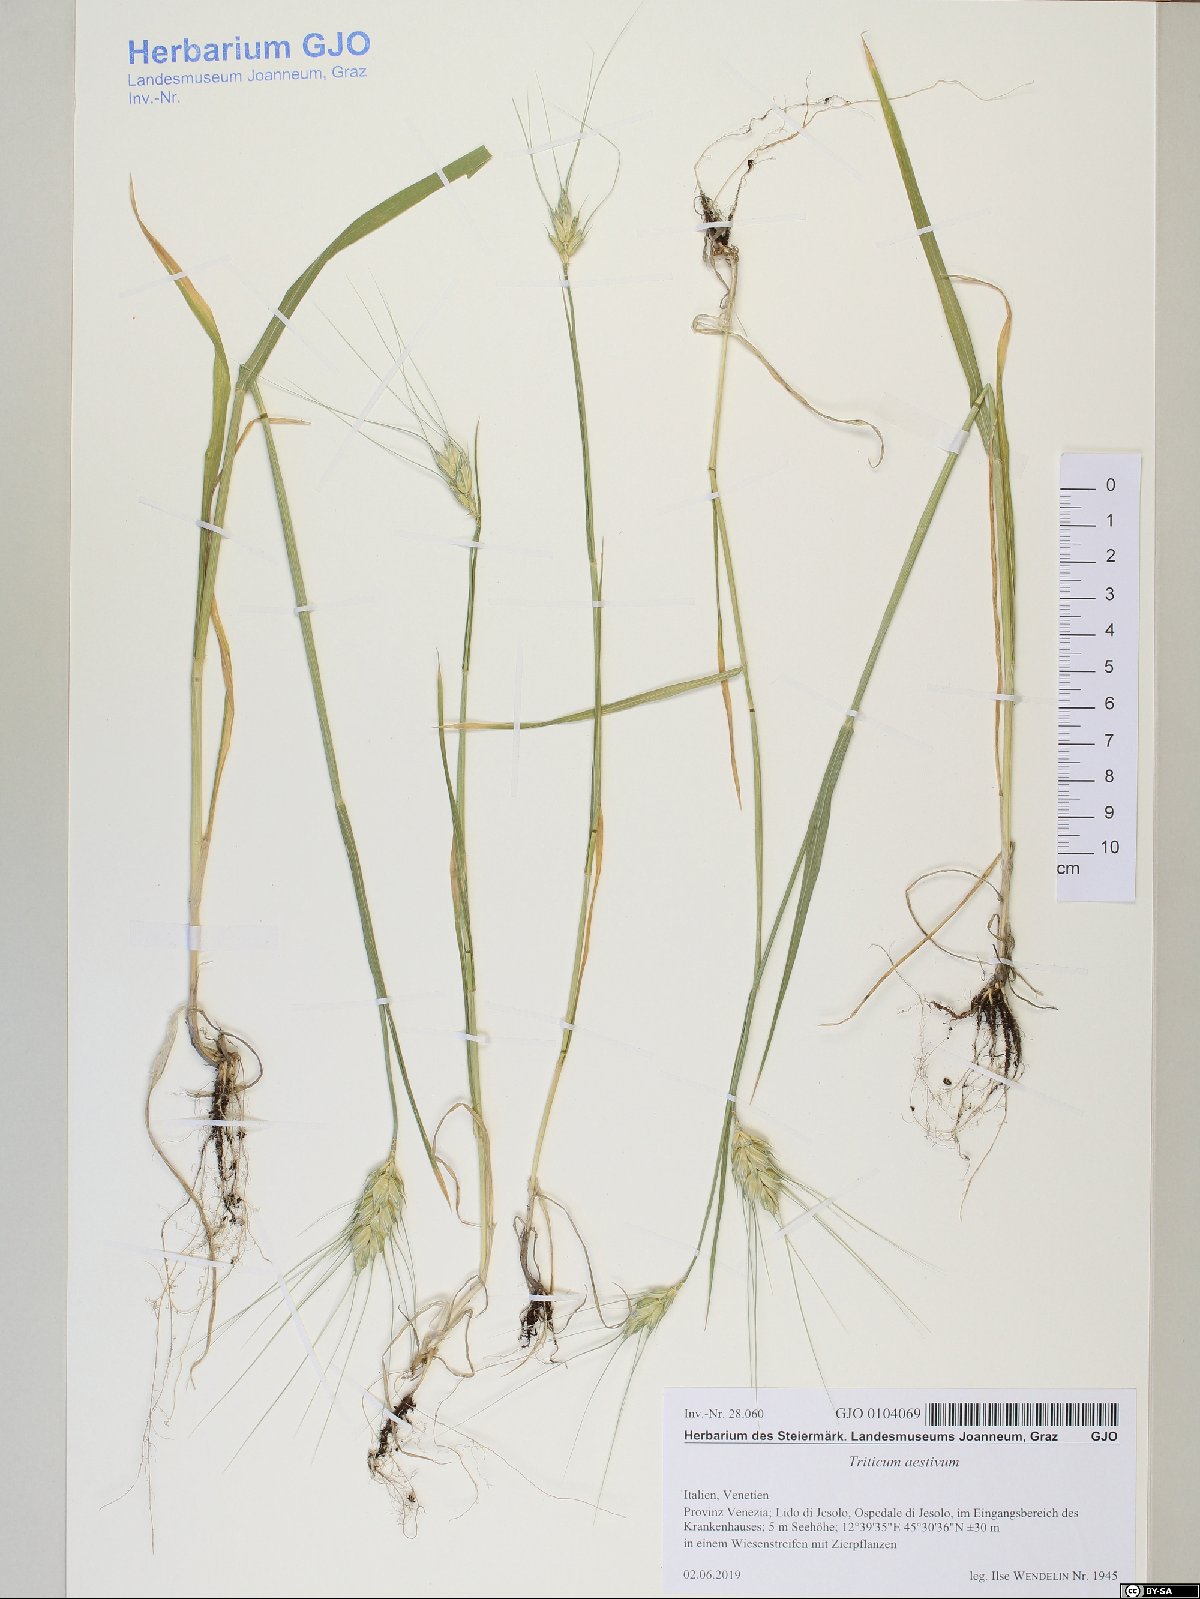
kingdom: Plantae
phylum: Tracheophyta
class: Liliopsida
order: Poales
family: Poaceae
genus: Triticum
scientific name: Triticum aestivum
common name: Common wheat
